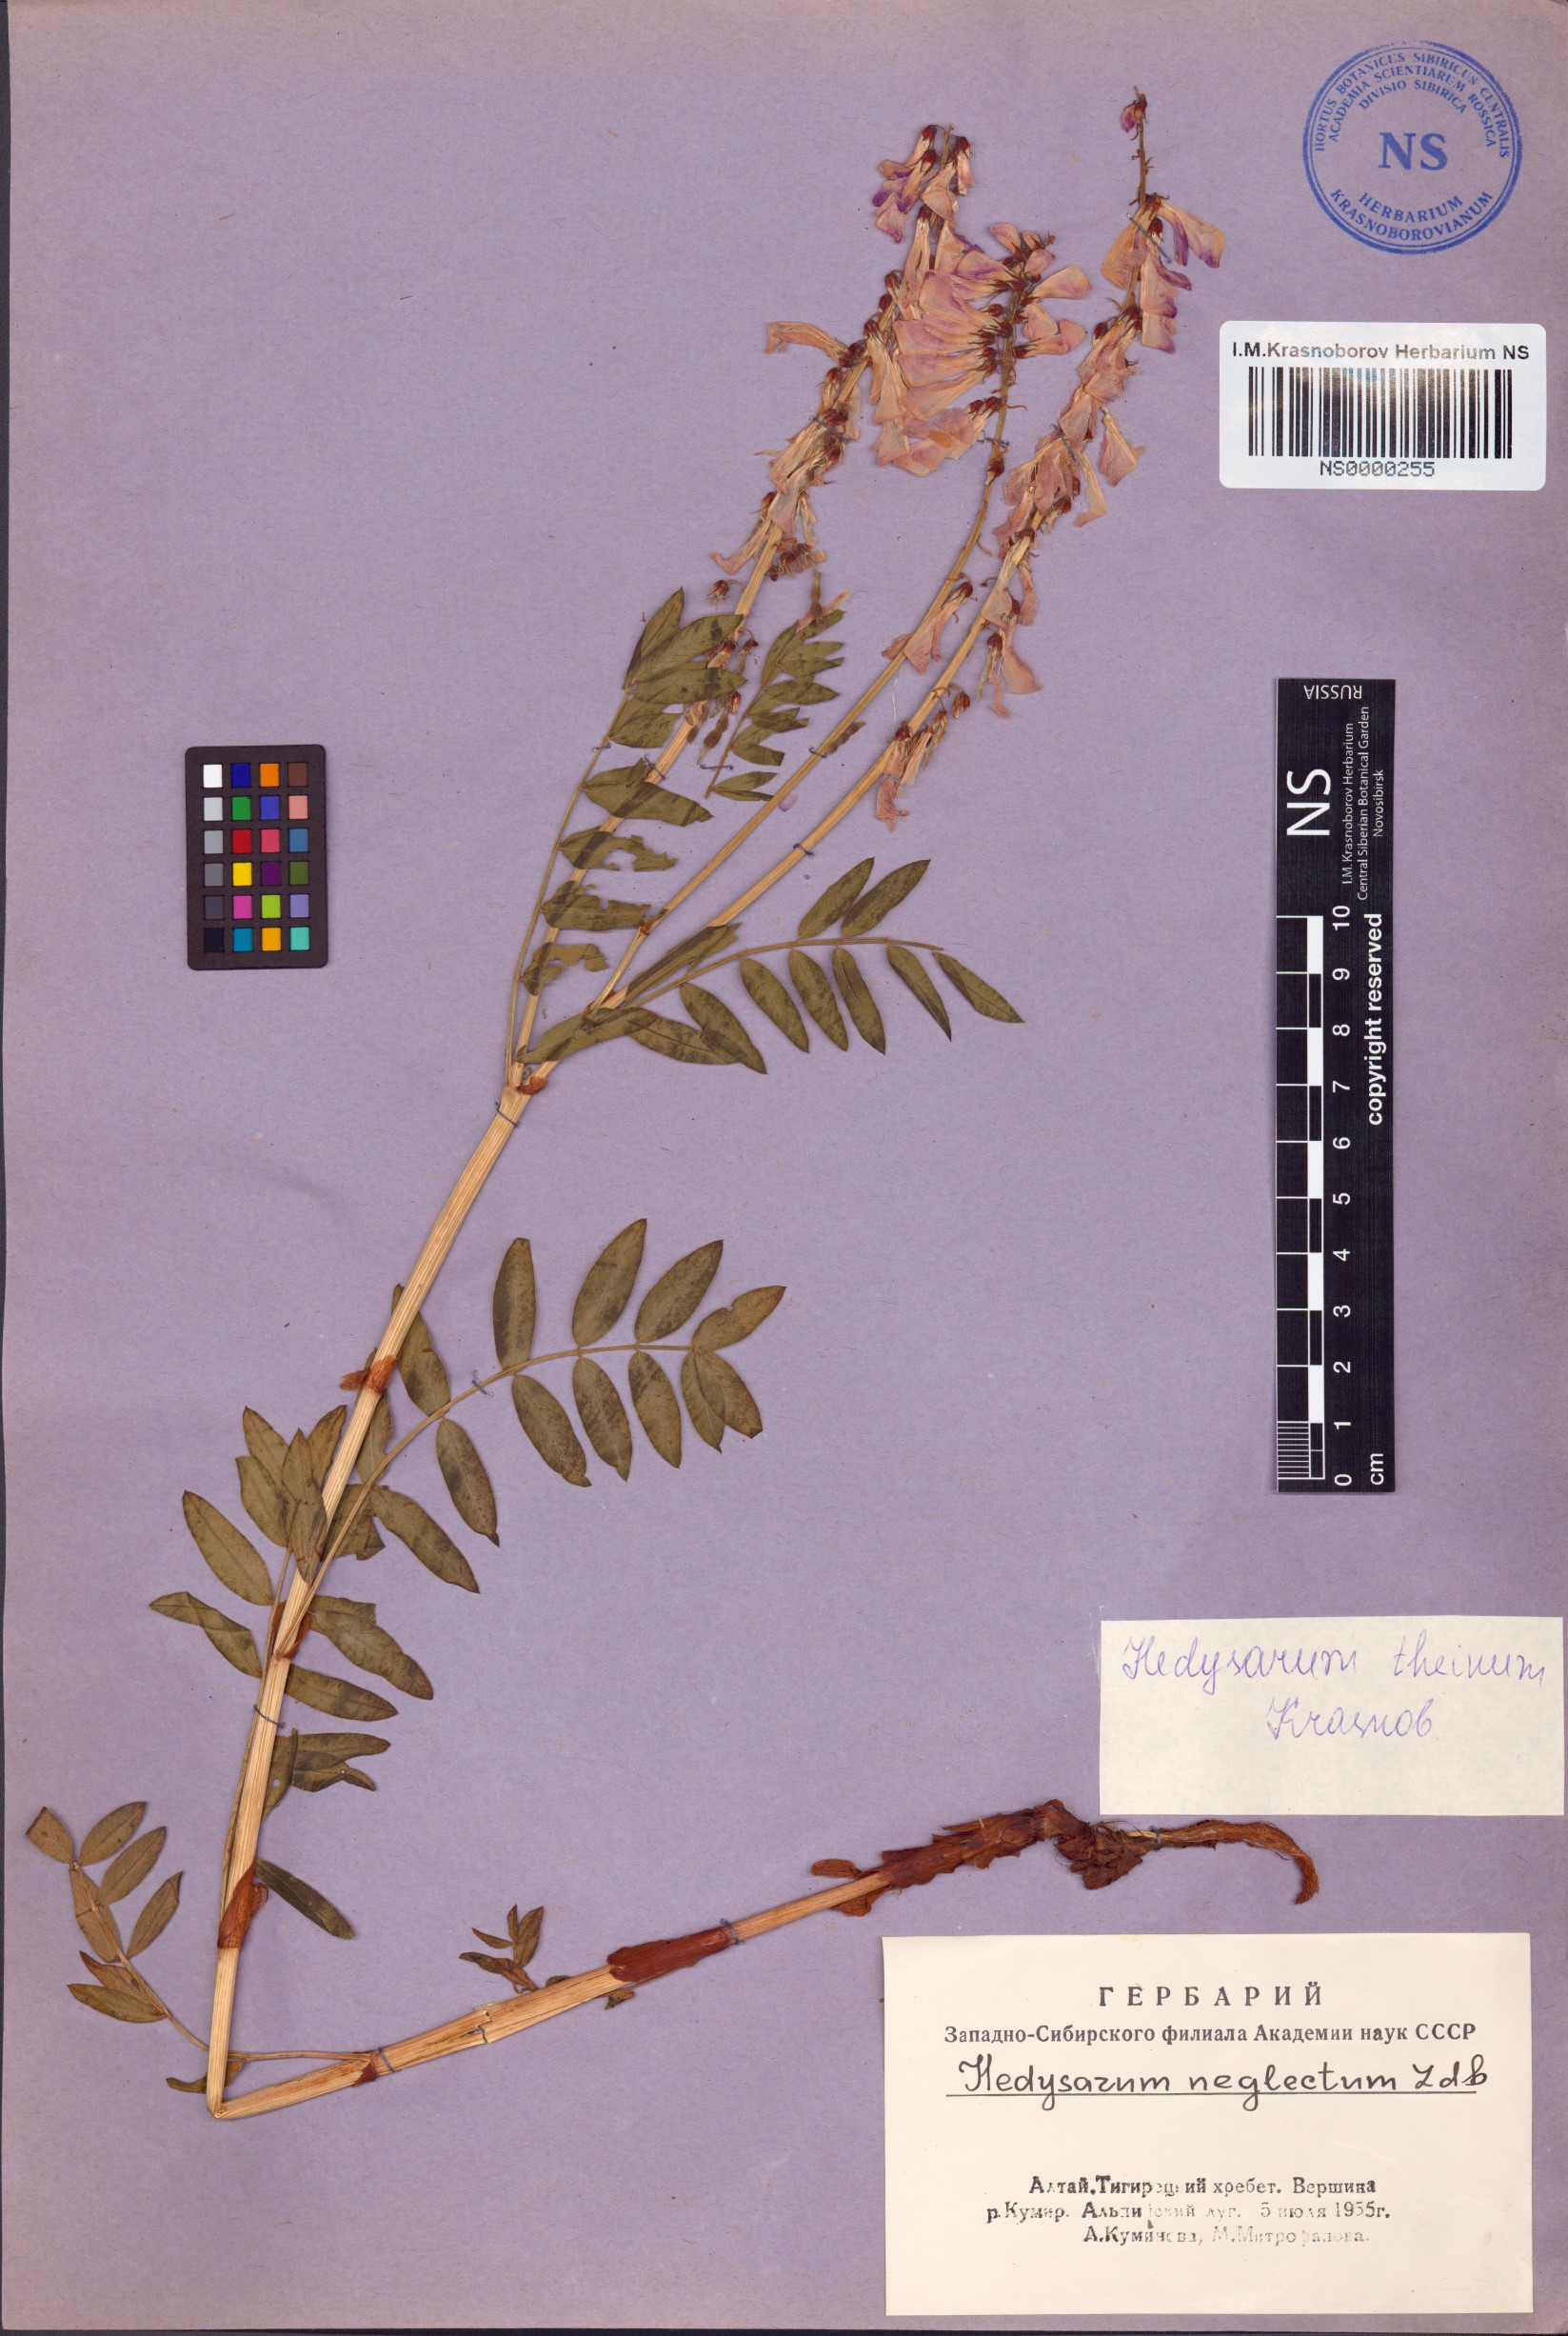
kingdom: Plantae
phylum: Tracheophyta
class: Magnoliopsida
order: Fabales
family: Fabaceae
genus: Hedysarum
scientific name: Hedysarum theinum
